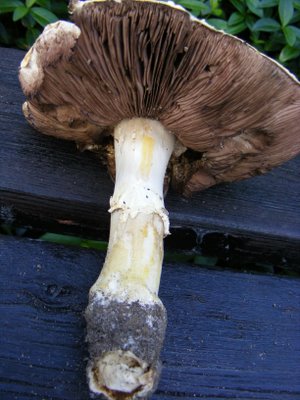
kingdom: Fungi
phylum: Basidiomycota
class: Agaricomycetes
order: Agaricales
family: Agaricaceae
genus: Agaricus
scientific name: Agaricus xanthodermus
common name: karbol-champignon
